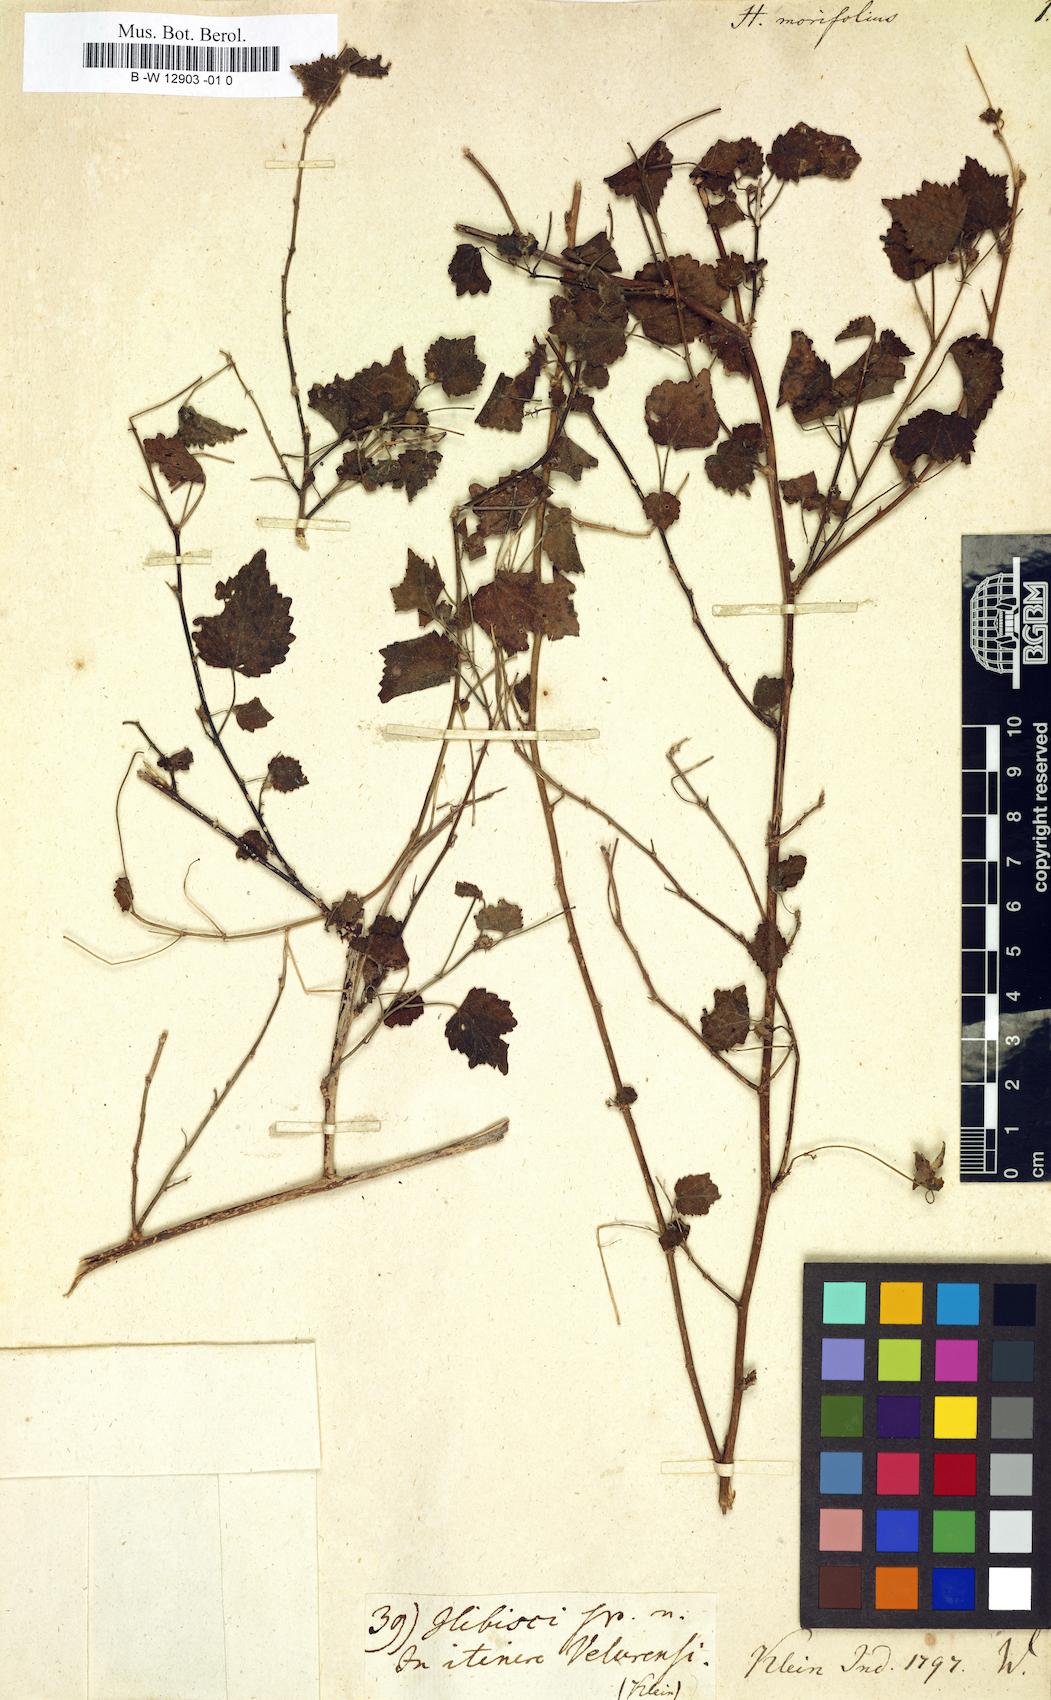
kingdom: Plantae
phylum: Tracheophyta
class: Magnoliopsida
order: Malvales
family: Malvaceae
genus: Pavonia
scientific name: Pavonia leptocalyx
